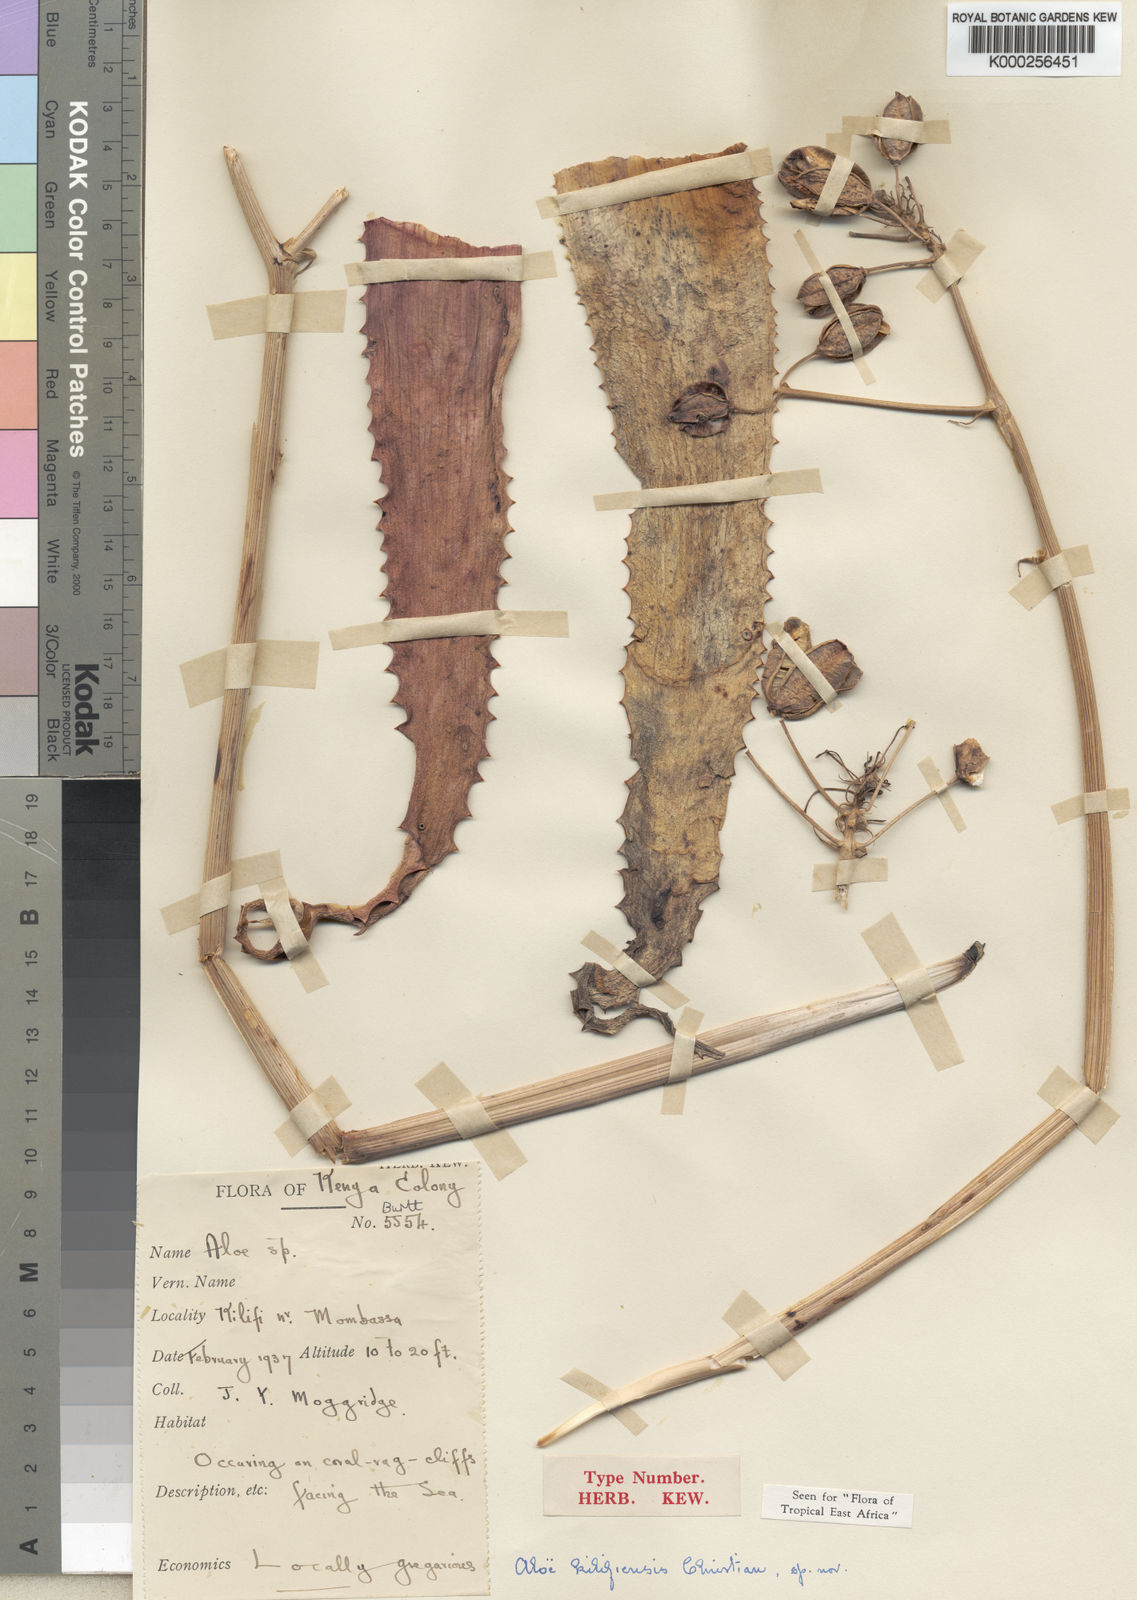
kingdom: Plantae
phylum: Tracheophyta
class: Liliopsida
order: Asparagales
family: Asphodelaceae
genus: Aloe
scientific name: Aloe kilifiensis
